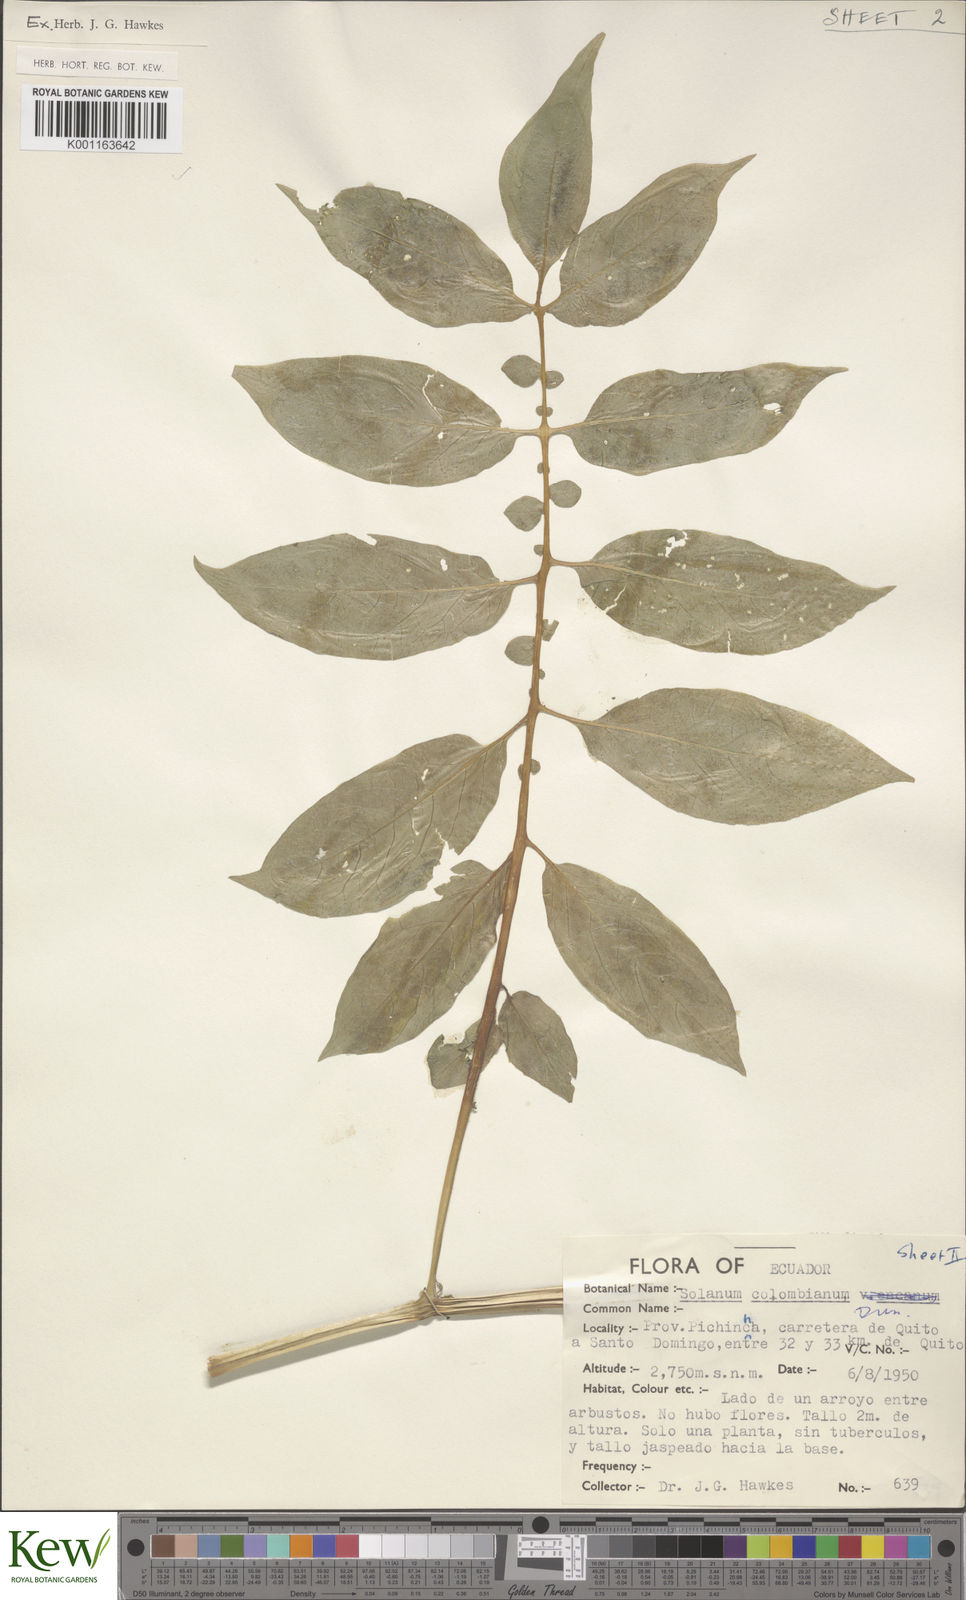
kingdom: Plantae
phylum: Tracheophyta
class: Magnoliopsida
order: Solanales
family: Solanaceae
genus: Solanum
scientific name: Solanum colombianum
